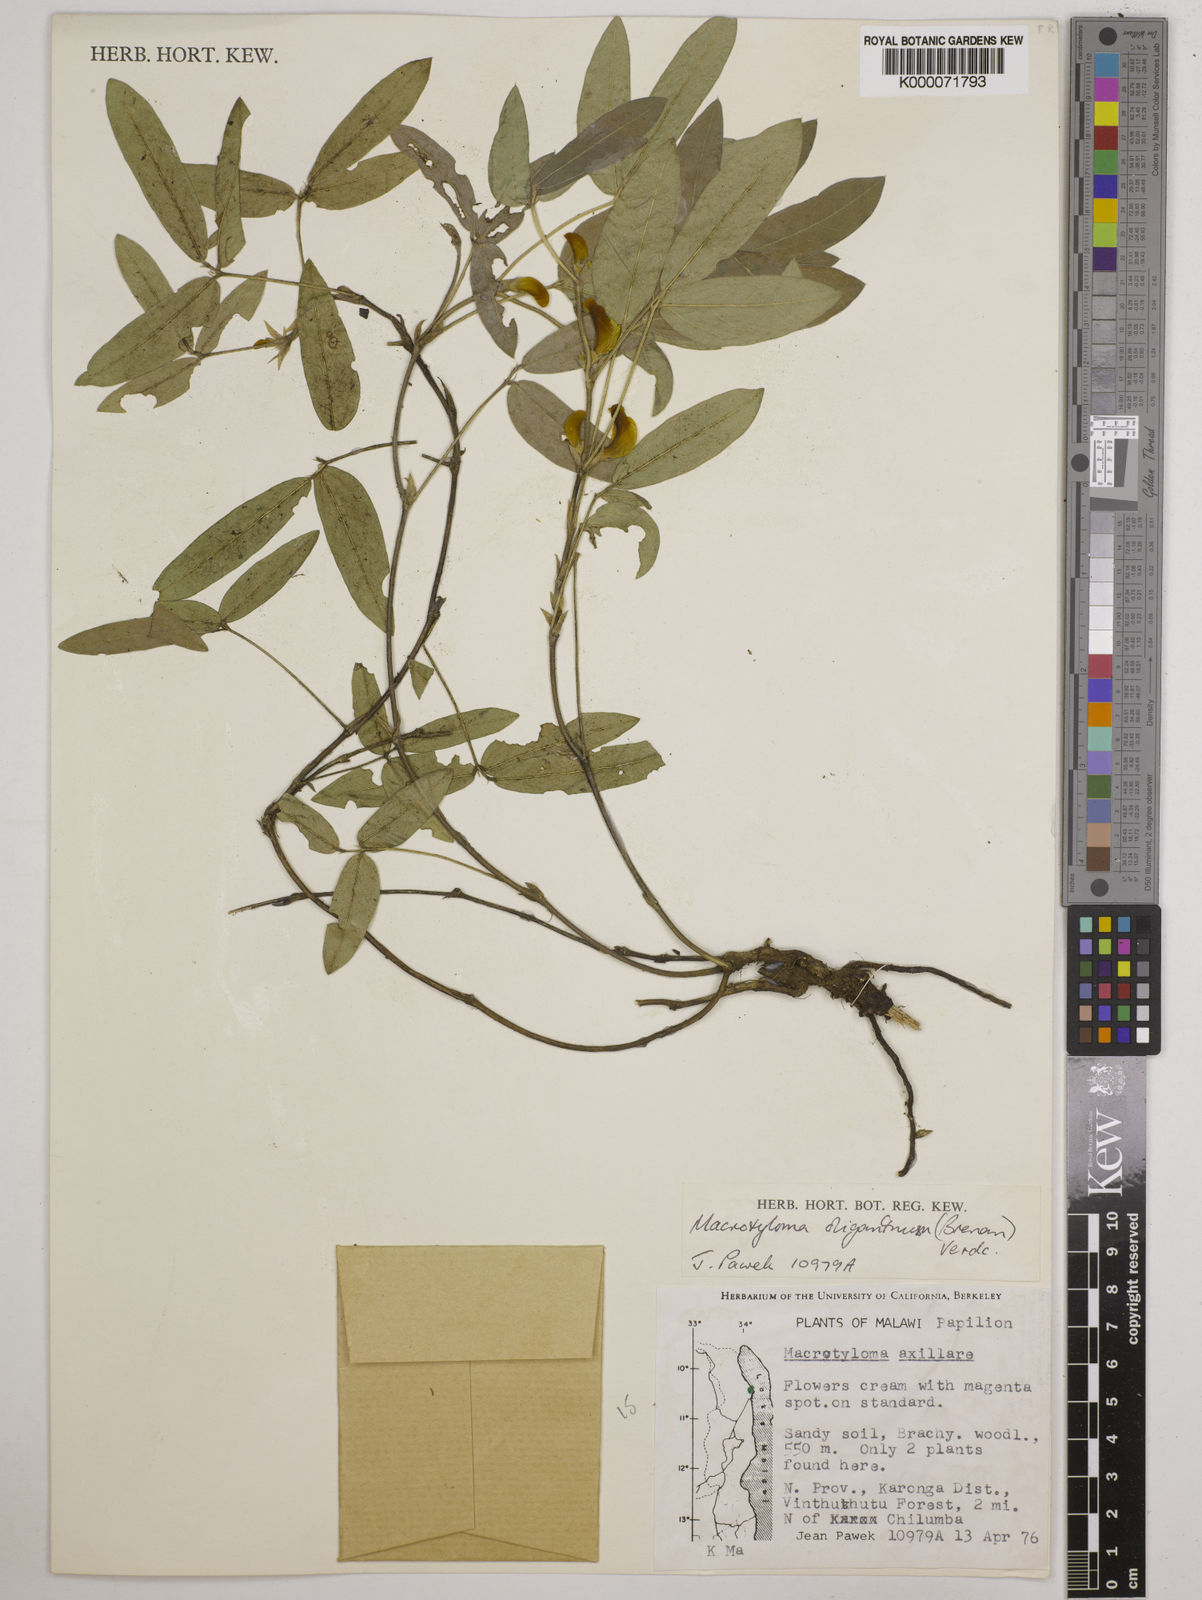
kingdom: Plantae
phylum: Tracheophyta
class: Magnoliopsida
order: Fabales
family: Fabaceae
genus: Macrotyloma
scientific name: Macrotyloma oliganthum
